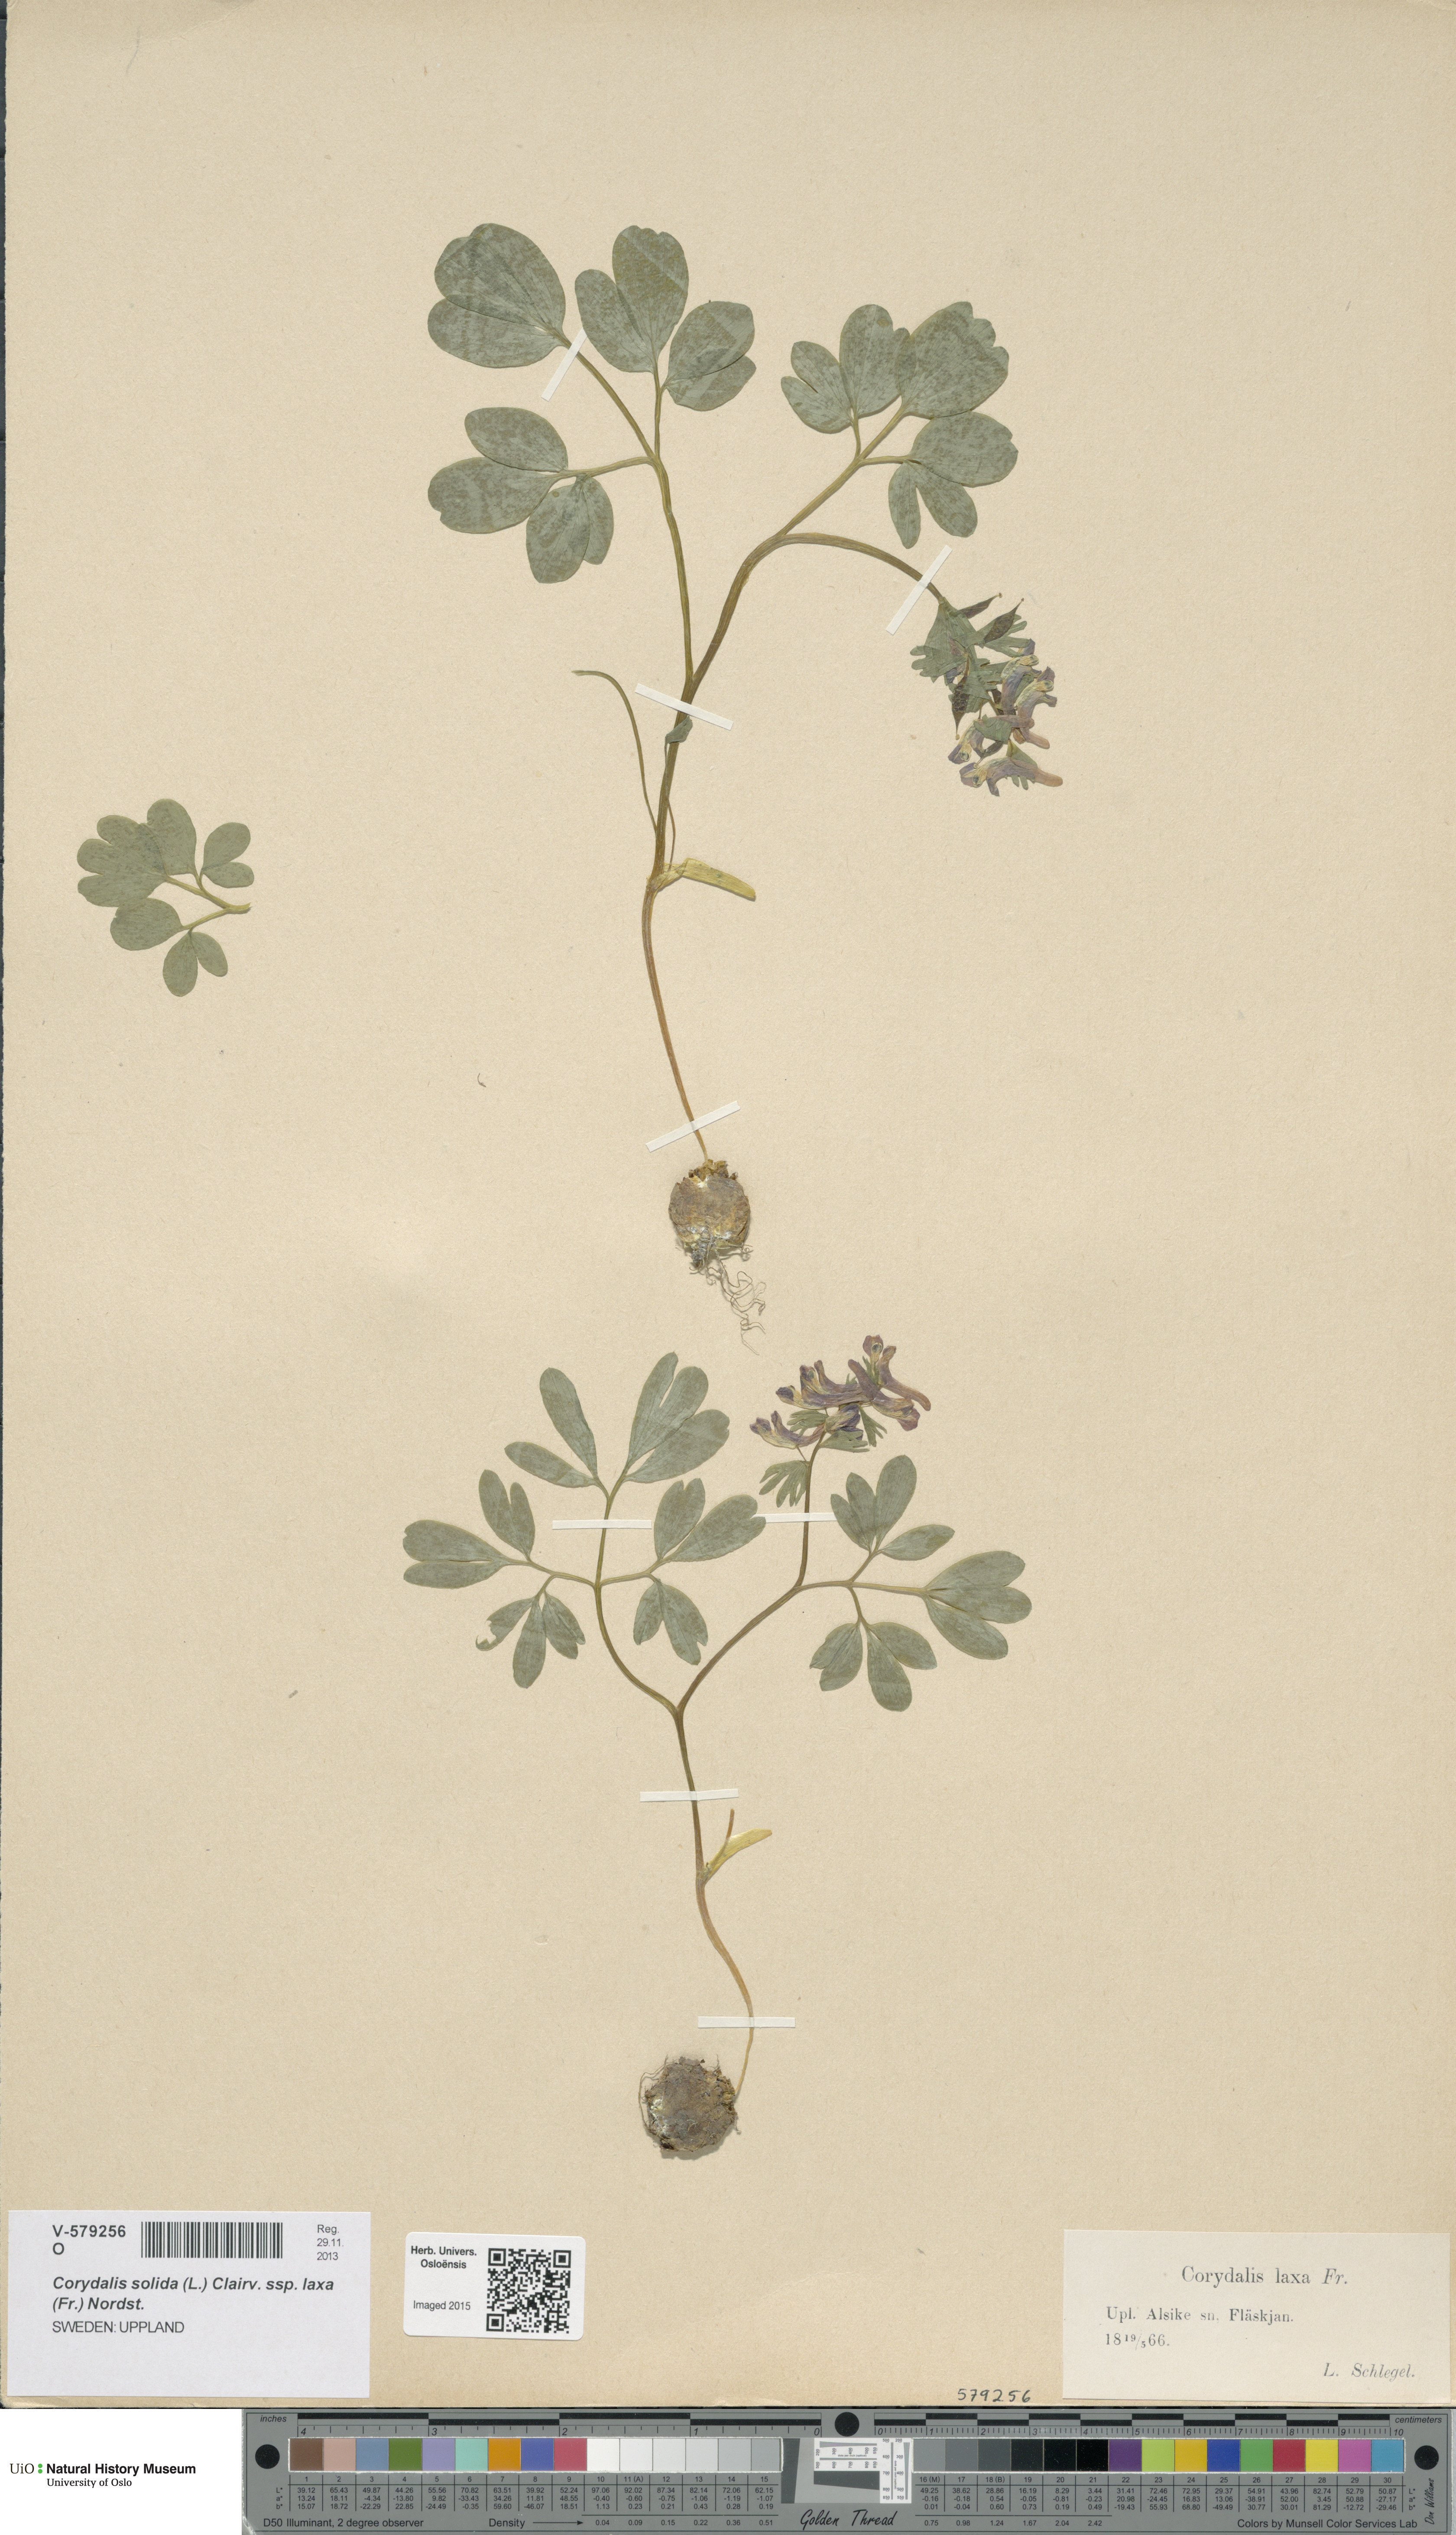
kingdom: Plantae
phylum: Tracheophyta
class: Magnoliopsida
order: Ranunculales
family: Papaveraceae
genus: Corydalis
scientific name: Corydalis solida
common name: Bird-in-a-bush
